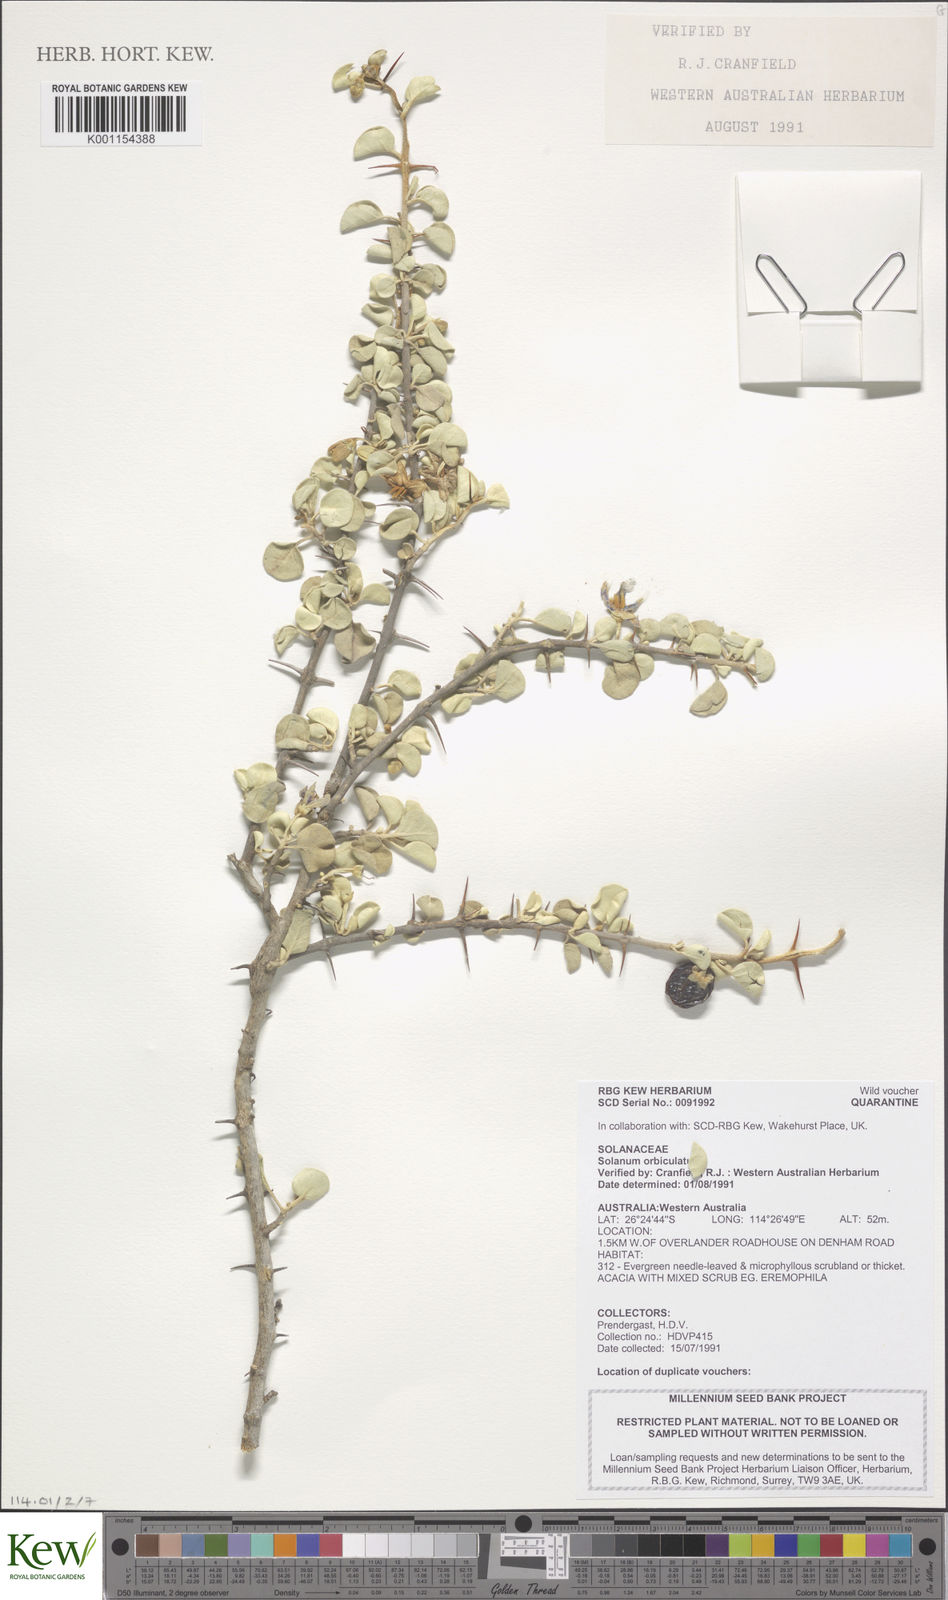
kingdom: Plantae
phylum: Tracheophyta
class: Magnoliopsida
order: Solanales
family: Solanaceae
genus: Solanum
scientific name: Solanum orbiculatum
